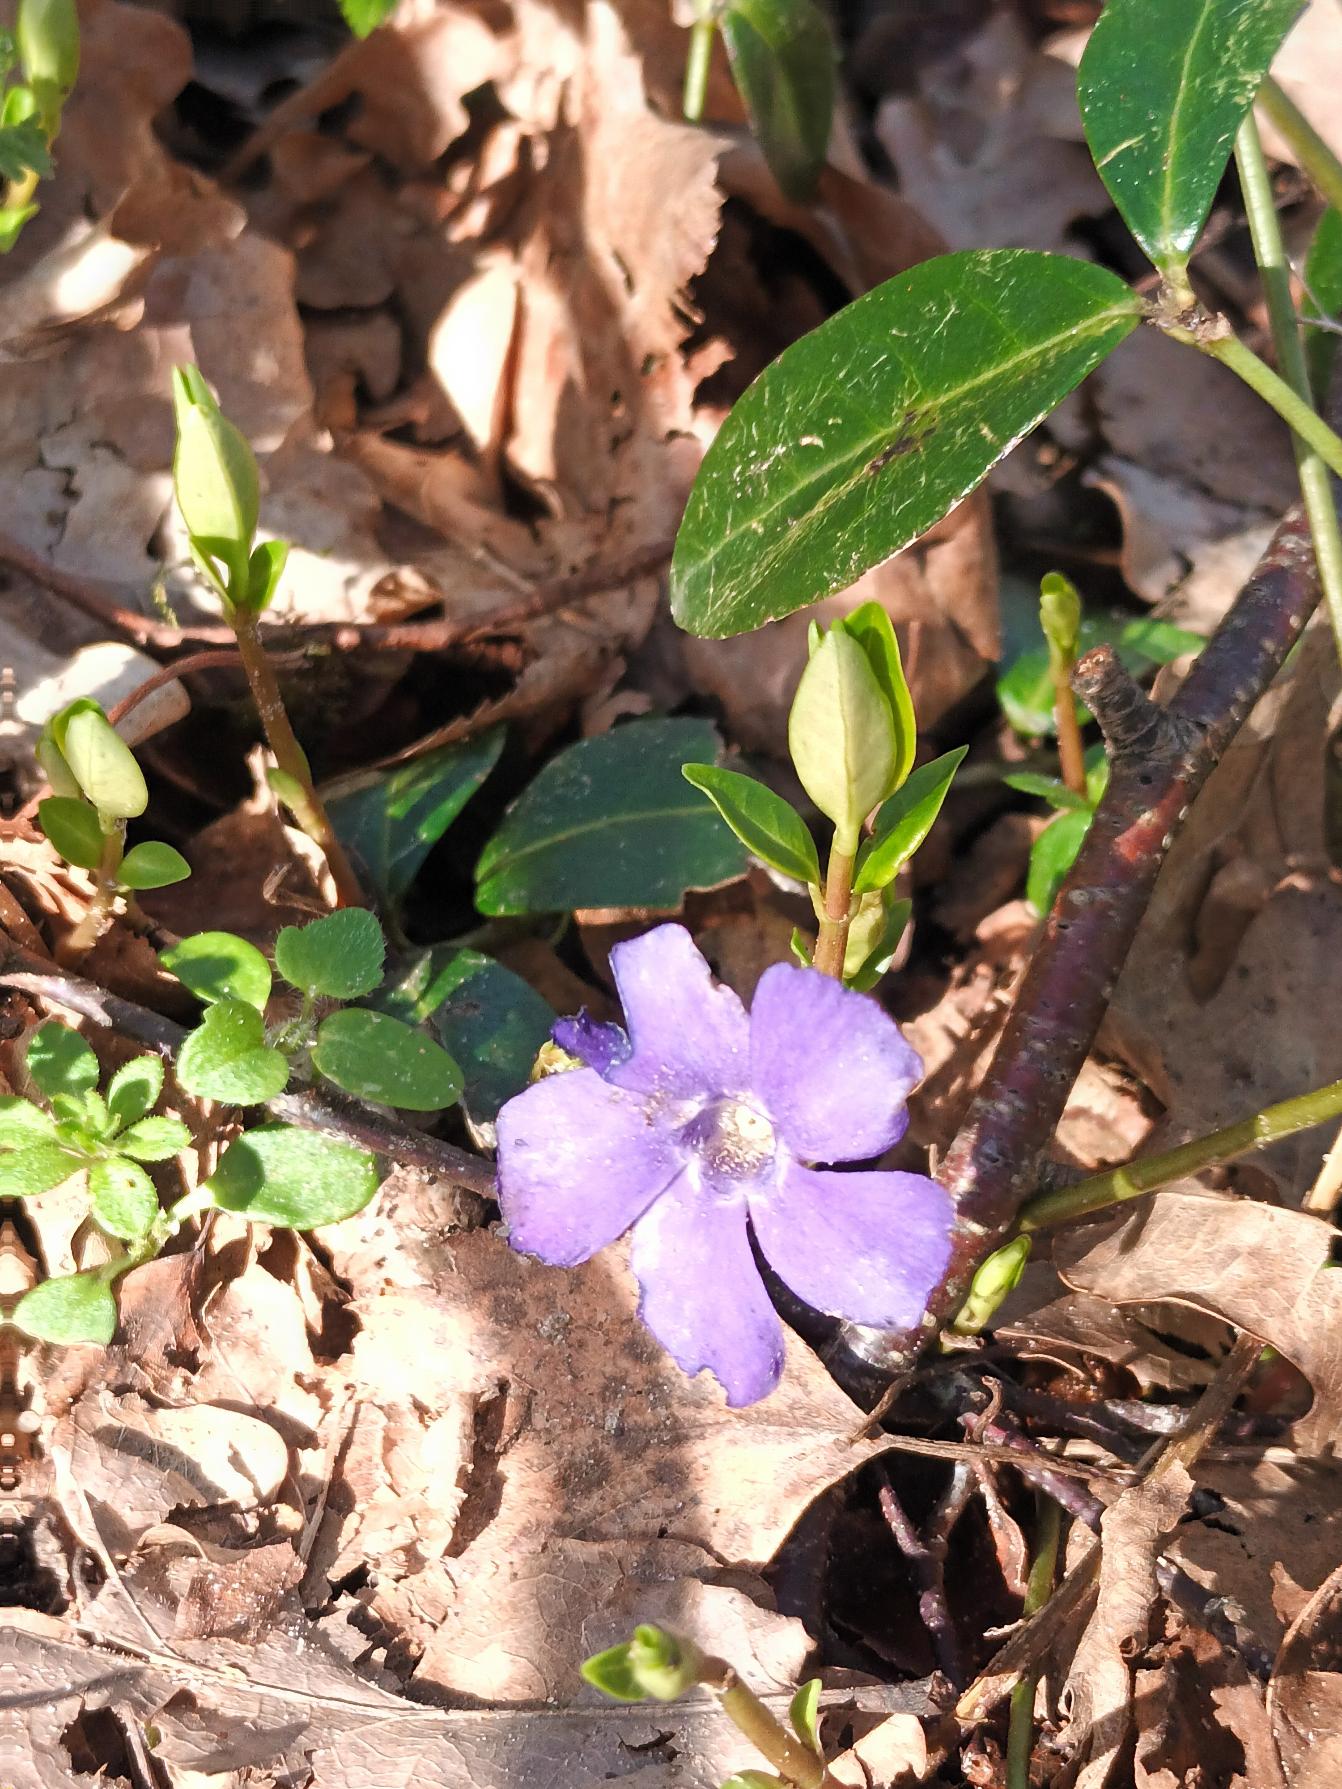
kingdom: Plantae
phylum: Tracheophyta
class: Magnoliopsida
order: Gentianales
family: Apocynaceae
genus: Vinca
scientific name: Vinca minor
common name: Liden singrøn
